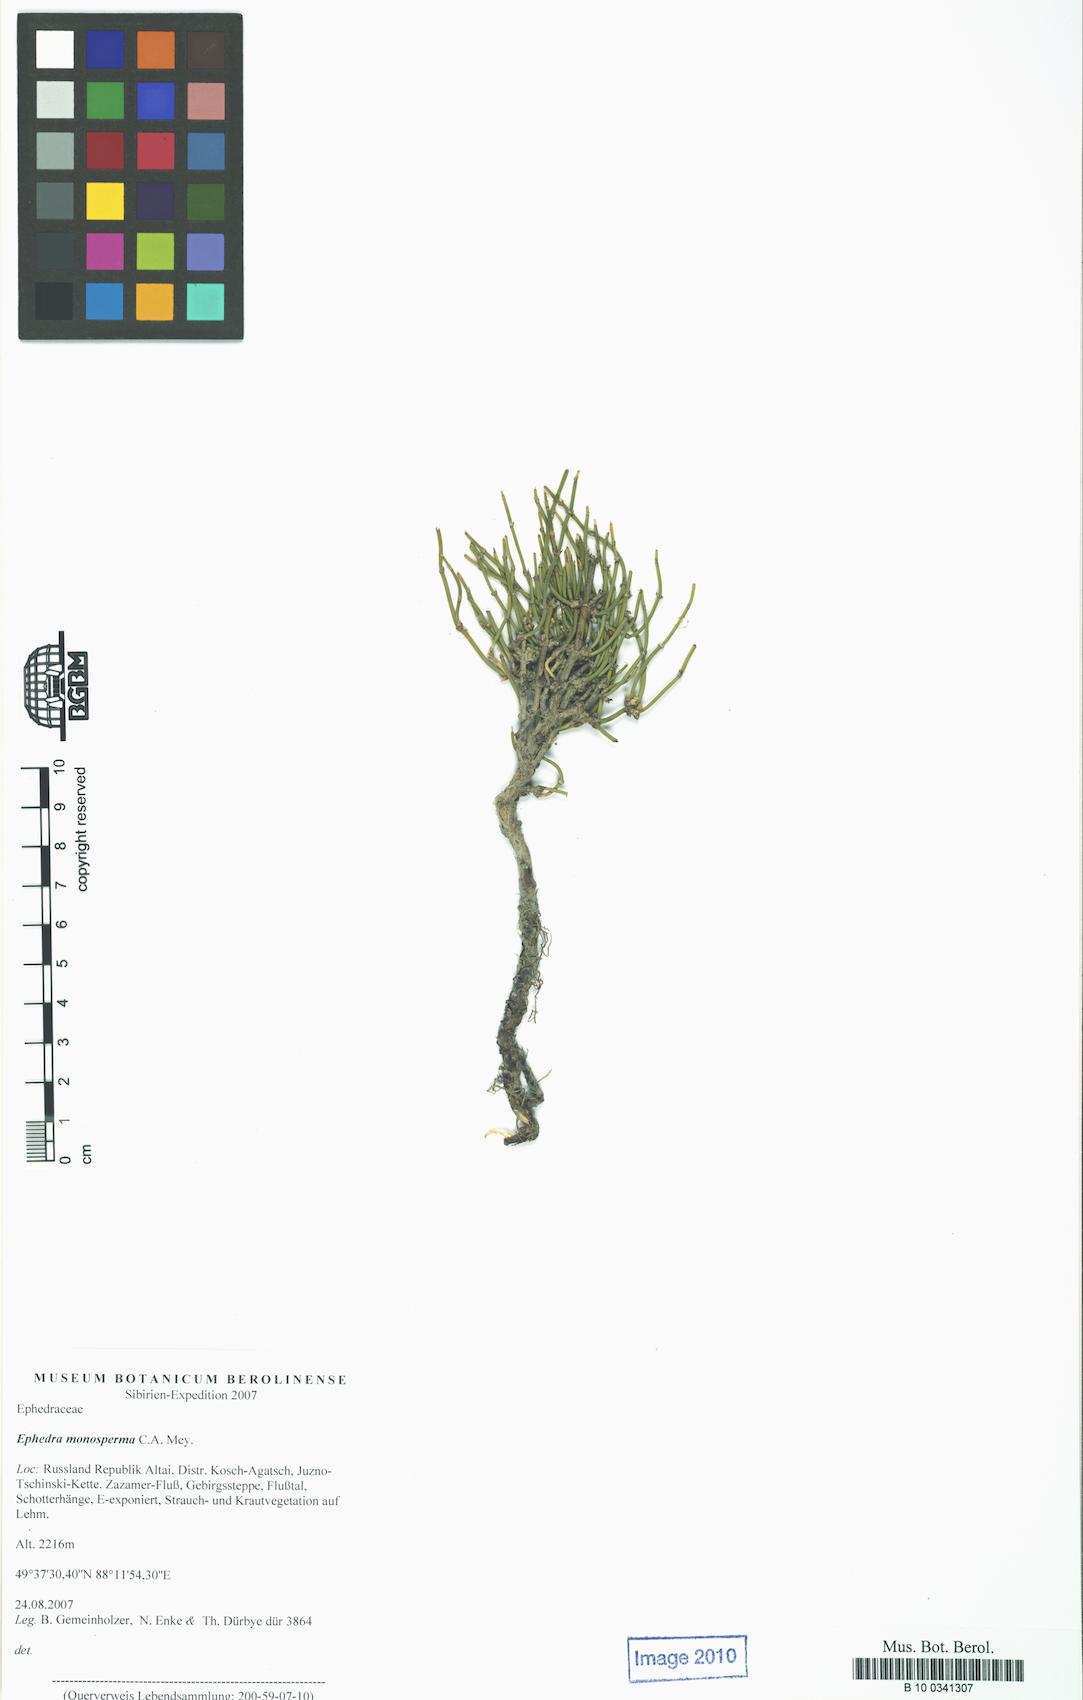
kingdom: Plantae
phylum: Tracheophyta
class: Gnetopsida
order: Ephedrales
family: Ephedraceae
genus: Ephedra
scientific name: Ephedra monosperma
